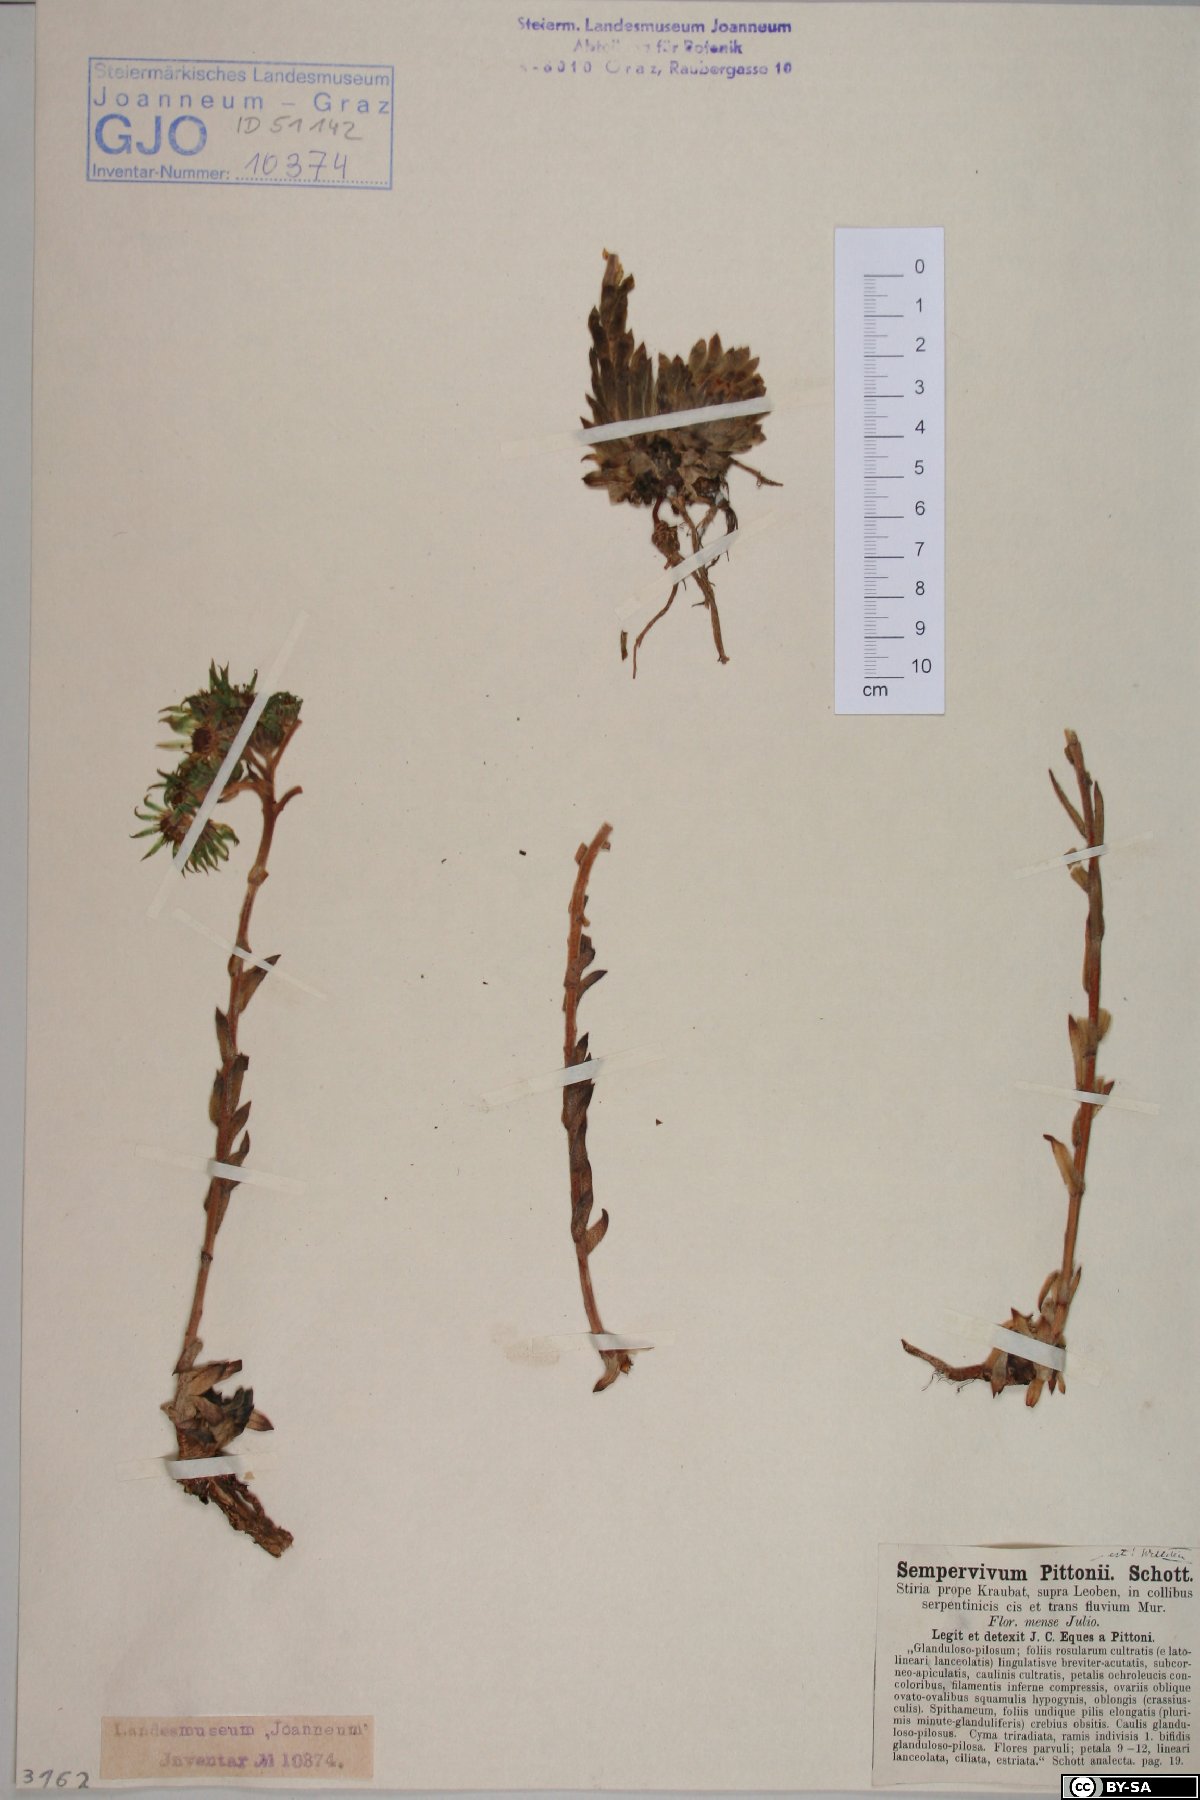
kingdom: Plantae
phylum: Tracheophyta
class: Magnoliopsida
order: Saxifragales
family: Crassulaceae
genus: Sempervivum
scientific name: Sempervivum pittonii
